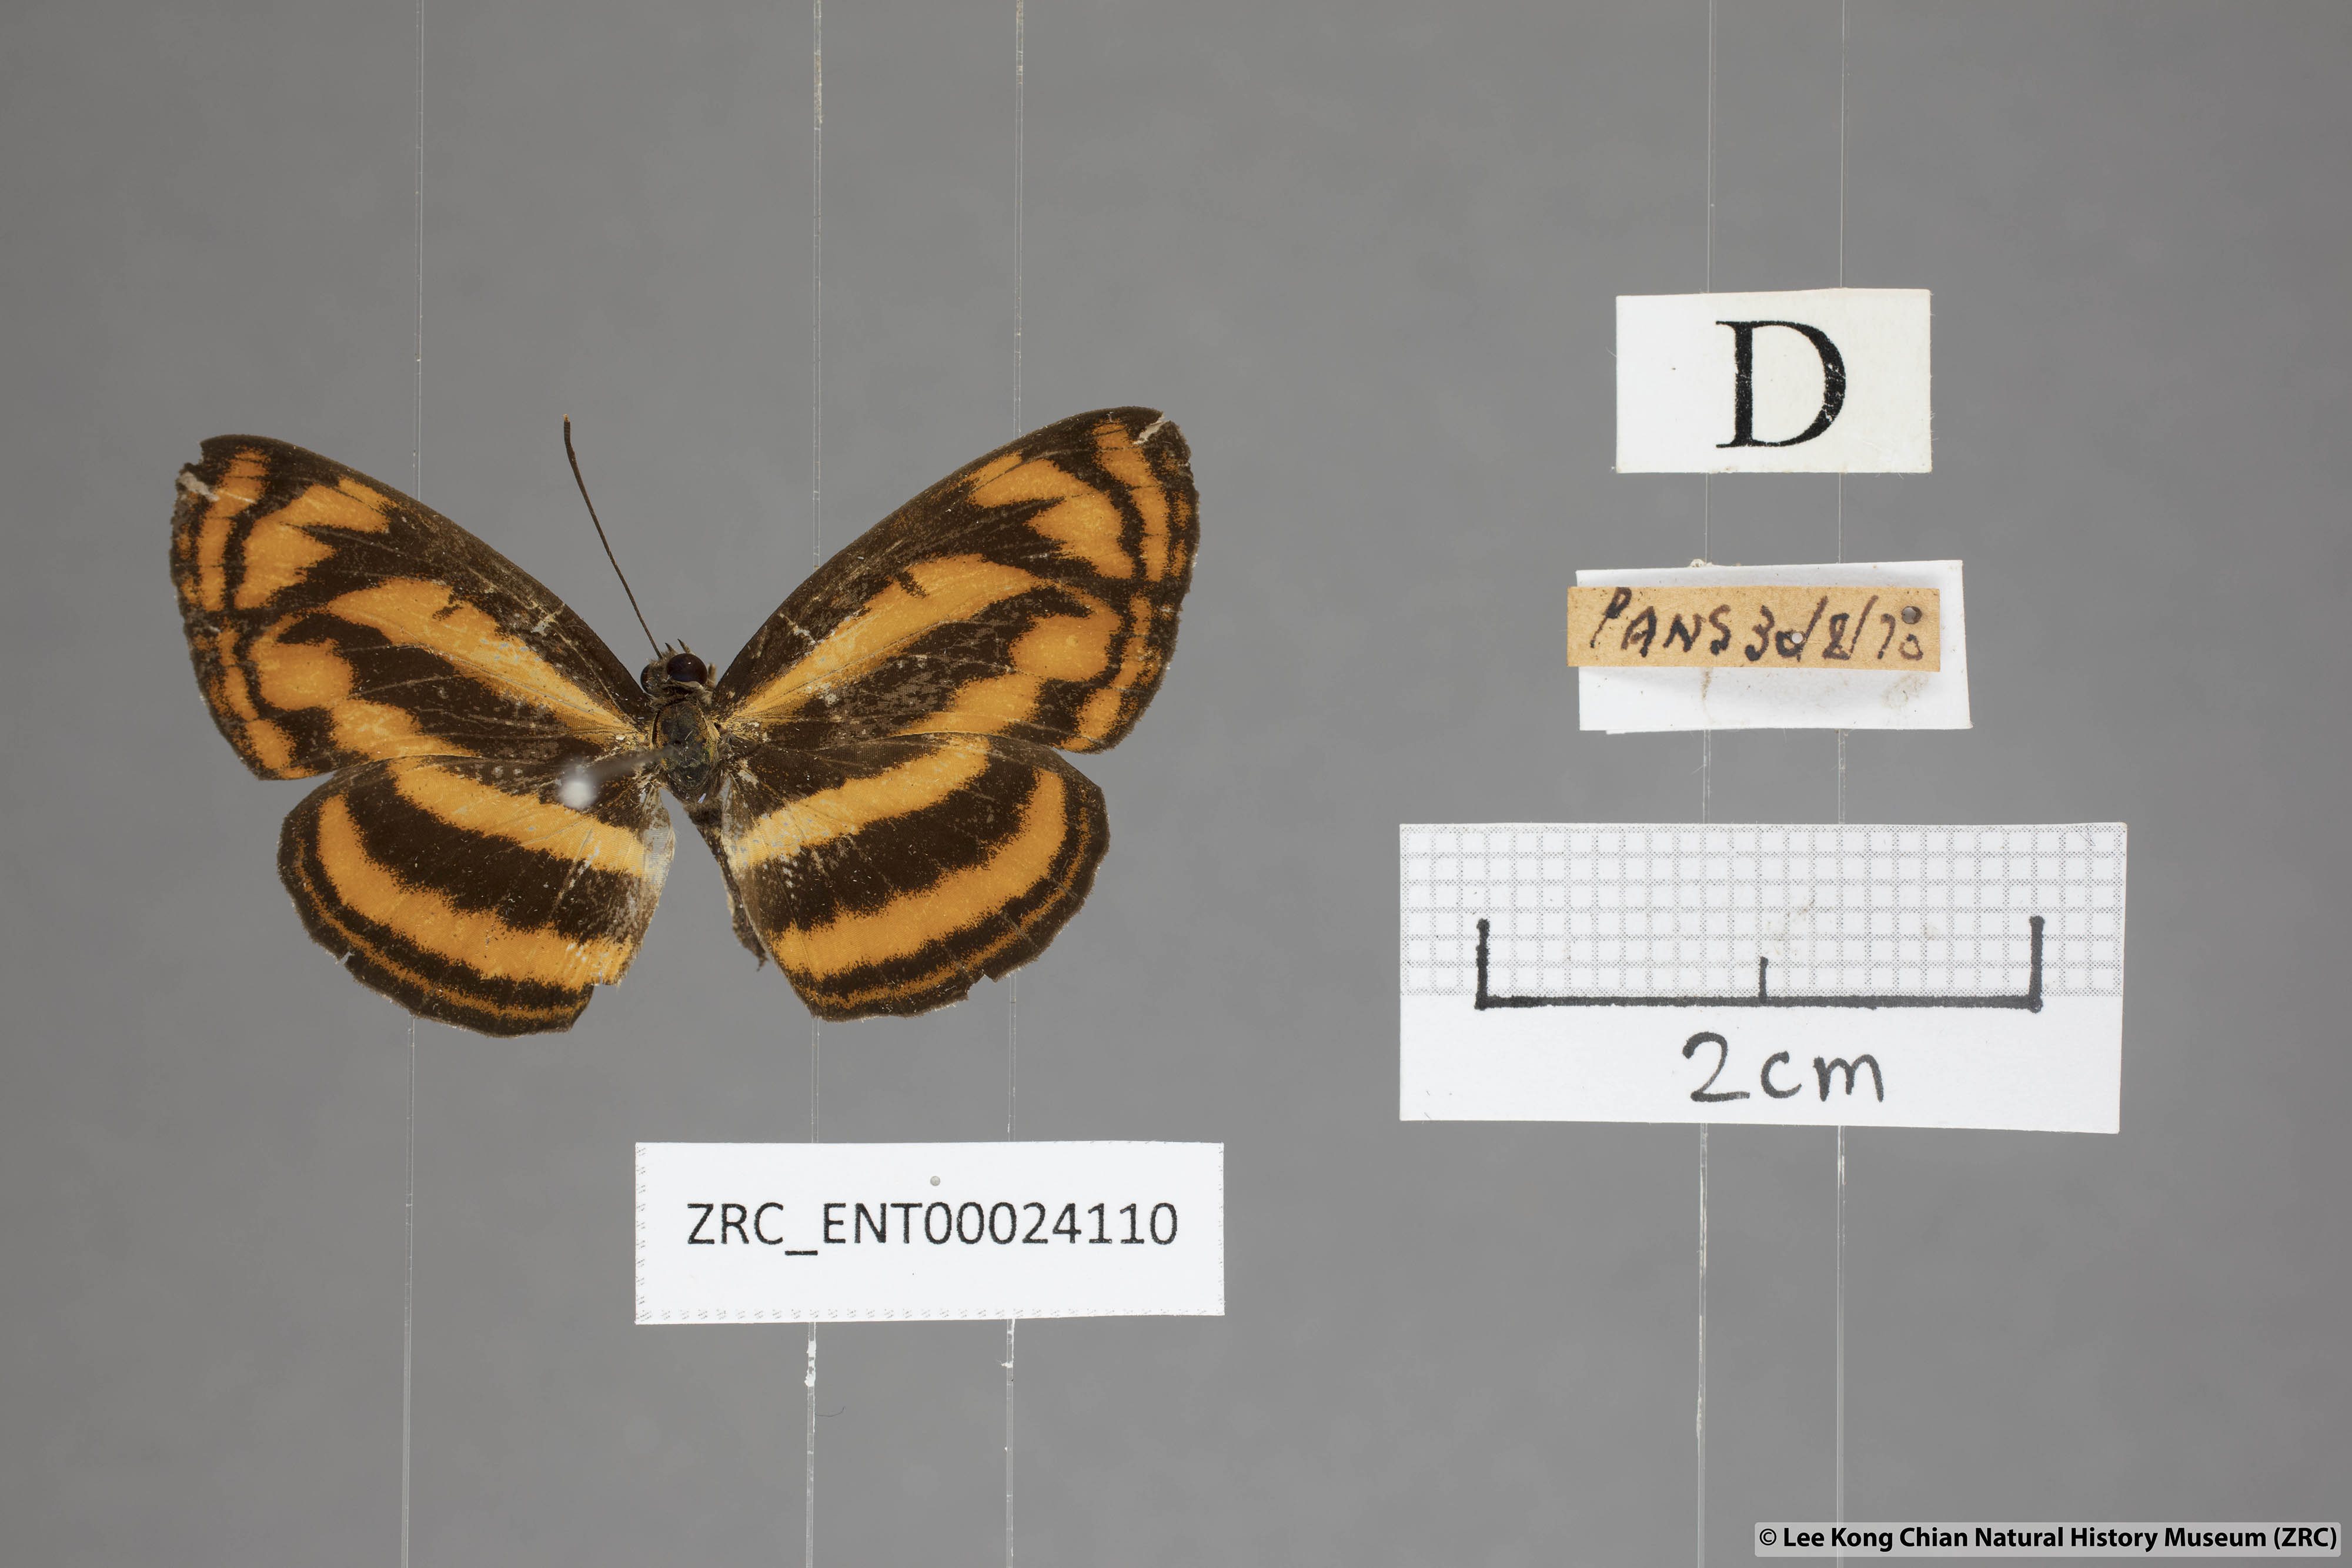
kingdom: Animalia
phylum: Arthropoda
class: Insecta
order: Lepidoptera
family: Nymphalidae
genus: Pantoporia
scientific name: Pantoporia aurelia
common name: Baby lascar
